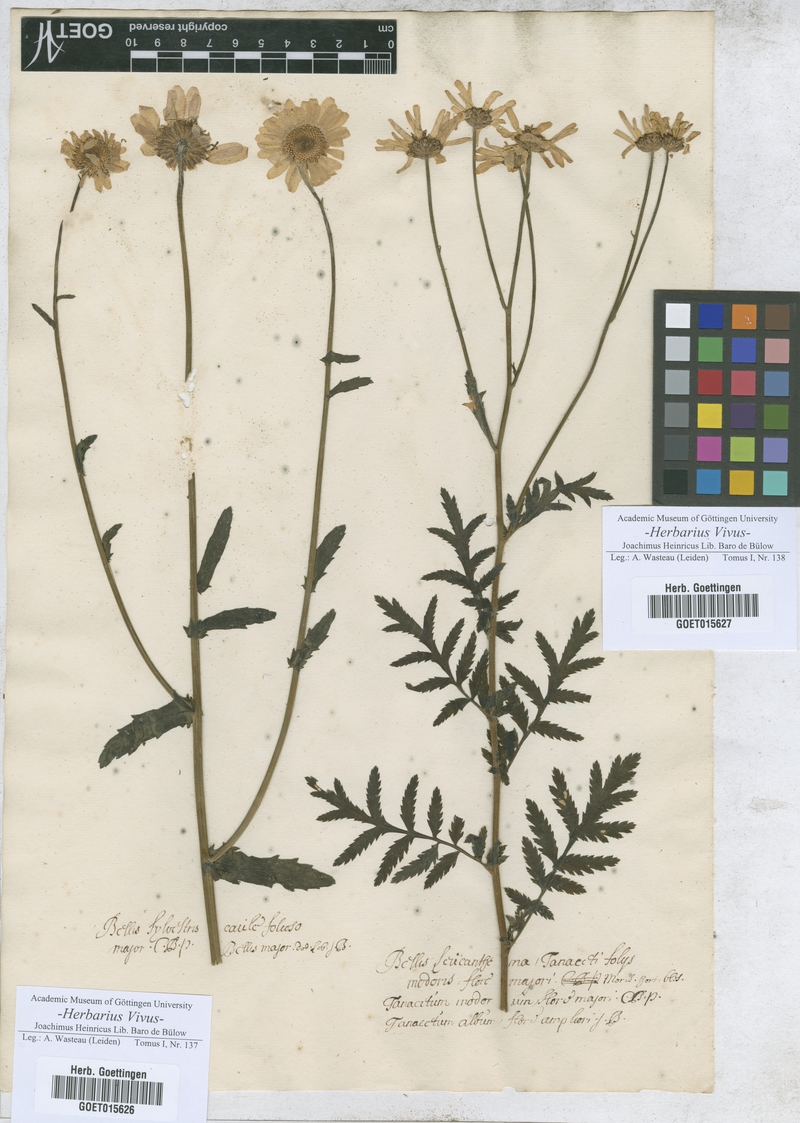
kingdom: Plantae
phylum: Tracheophyta
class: Magnoliopsida
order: Asterales
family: Asteraceae
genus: Bellis
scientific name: Bellis sylvestris
